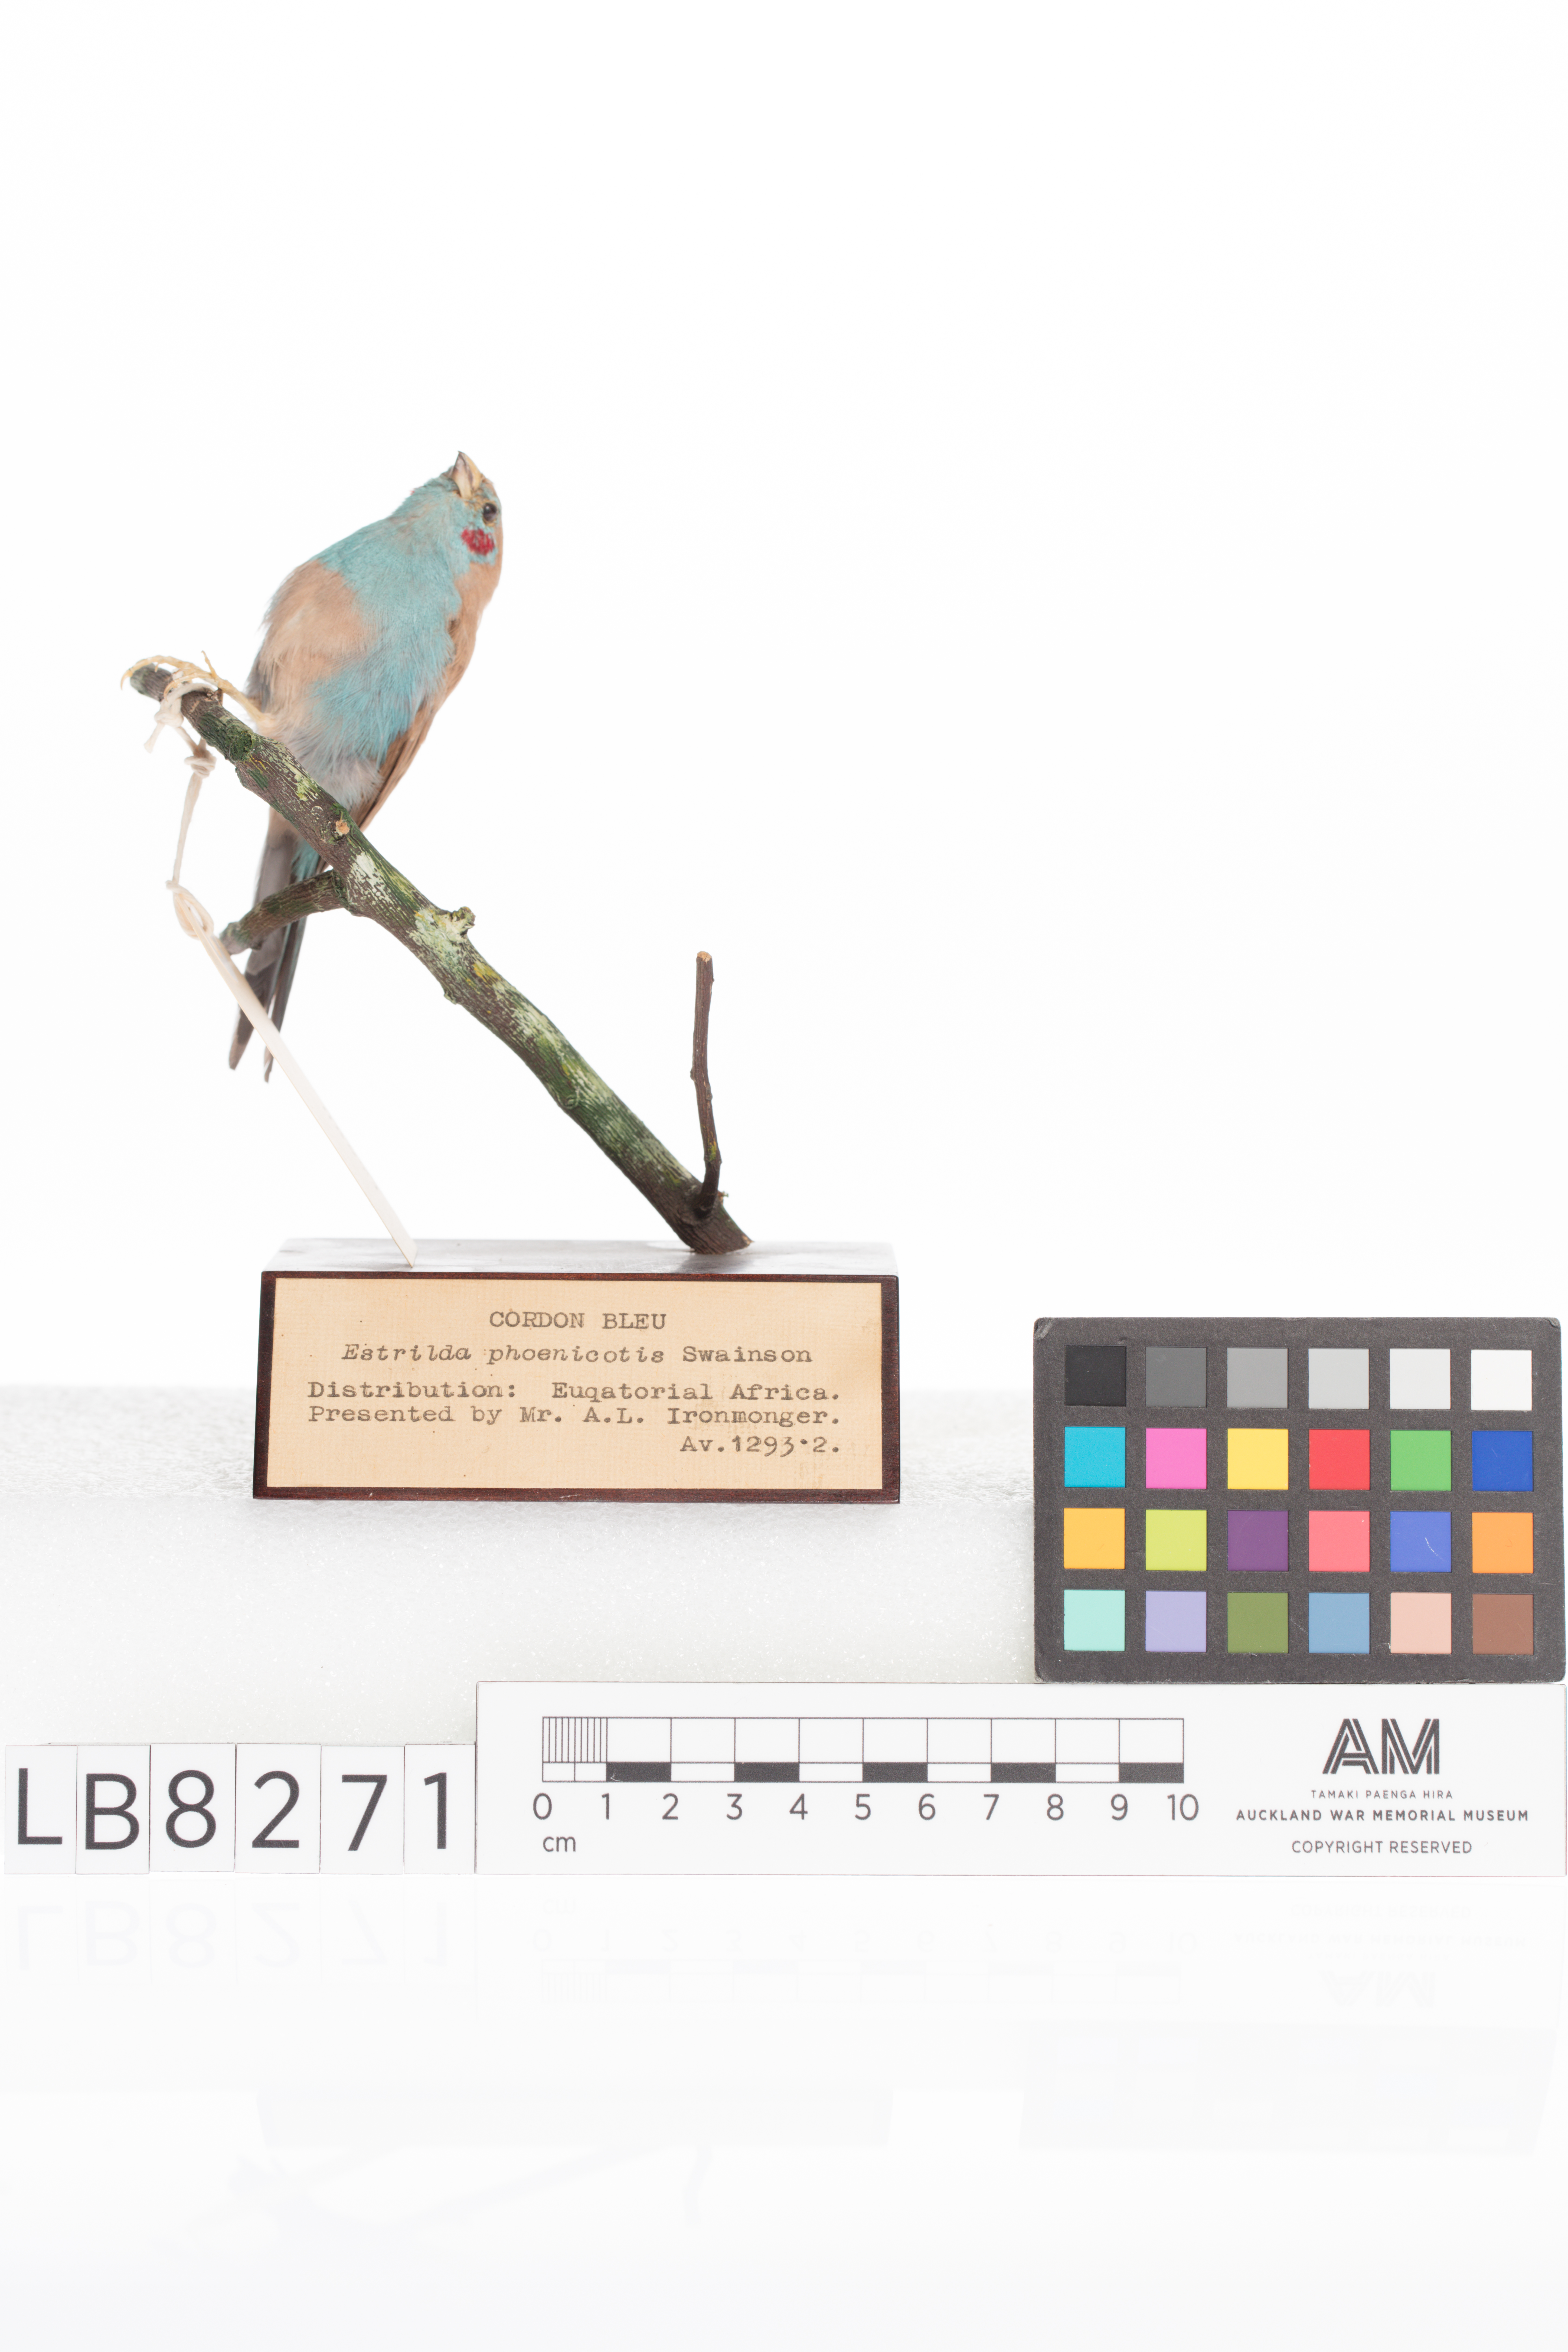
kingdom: Animalia
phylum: Chordata
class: Aves
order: Passeriformes
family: Estrildidae
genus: Uraeginthus
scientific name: Uraeginthus bengalus
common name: Red-cheeked cordon-bleu
